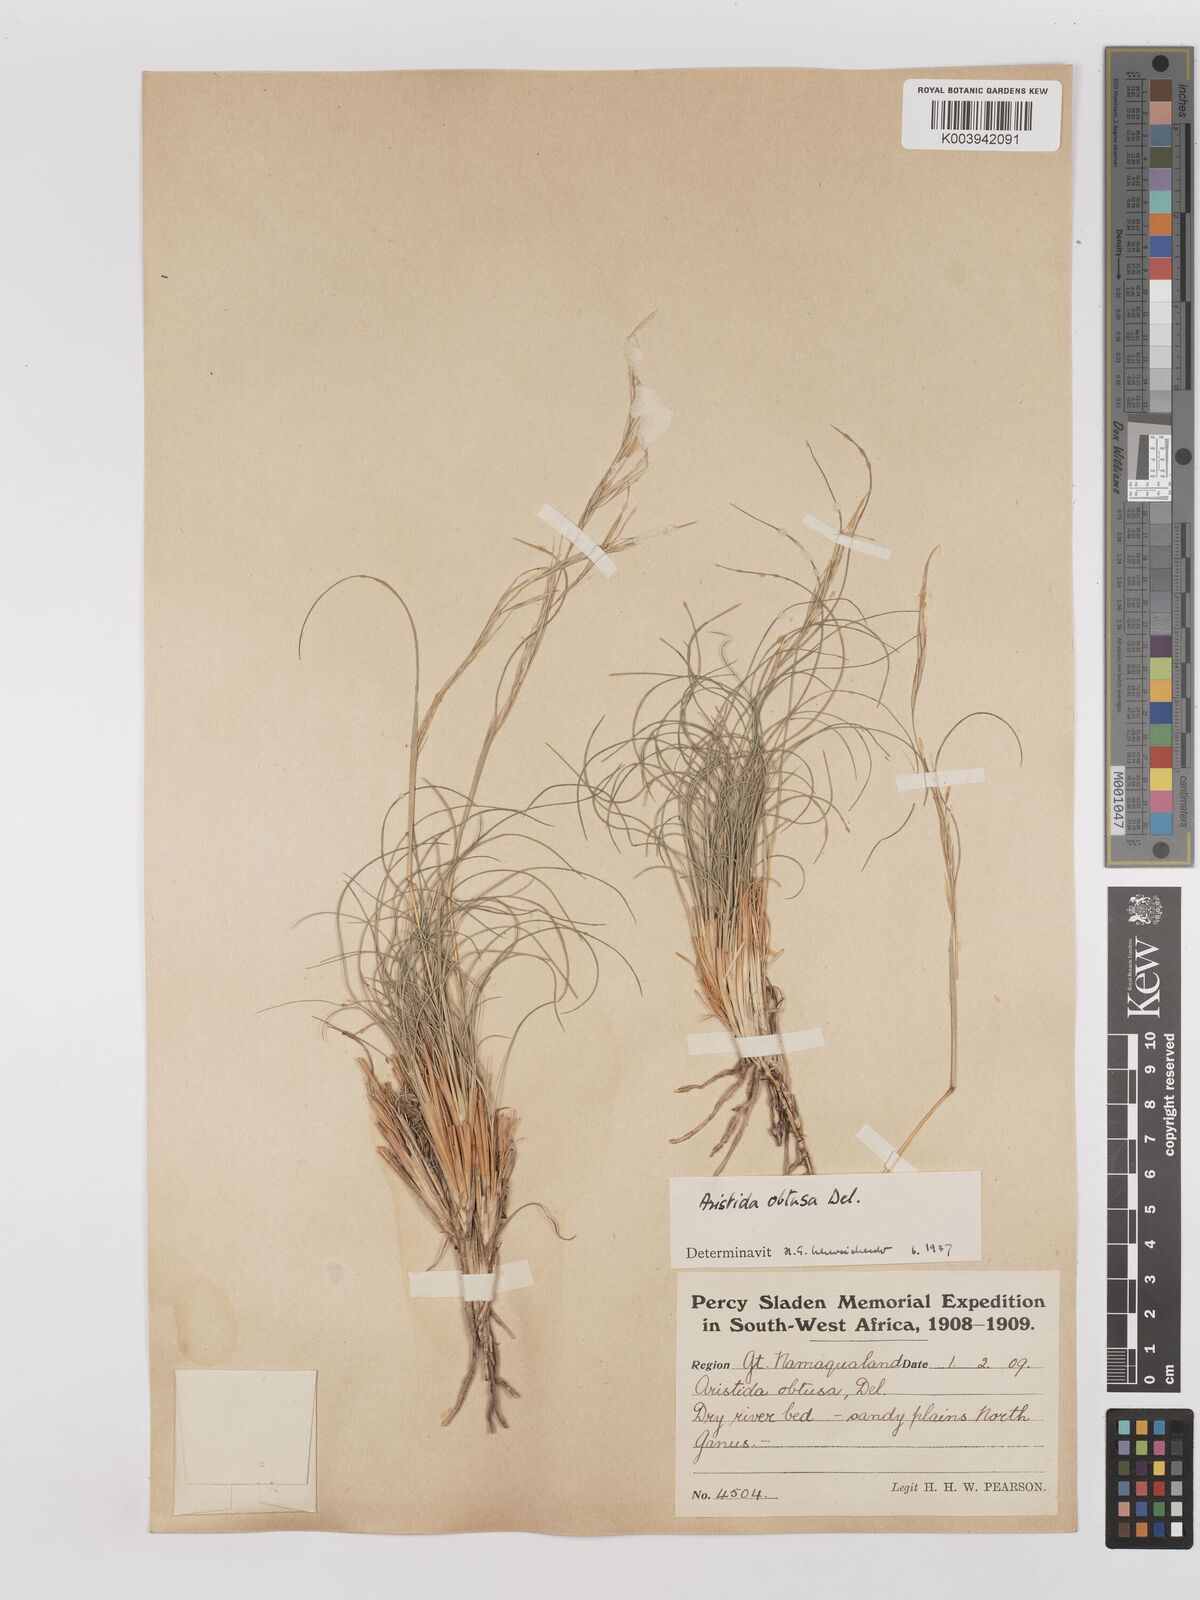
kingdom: Plantae
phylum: Tracheophyta
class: Liliopsida
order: Poales
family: Poaceae
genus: Stipagrostis
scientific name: Stipagrostis obtusa
